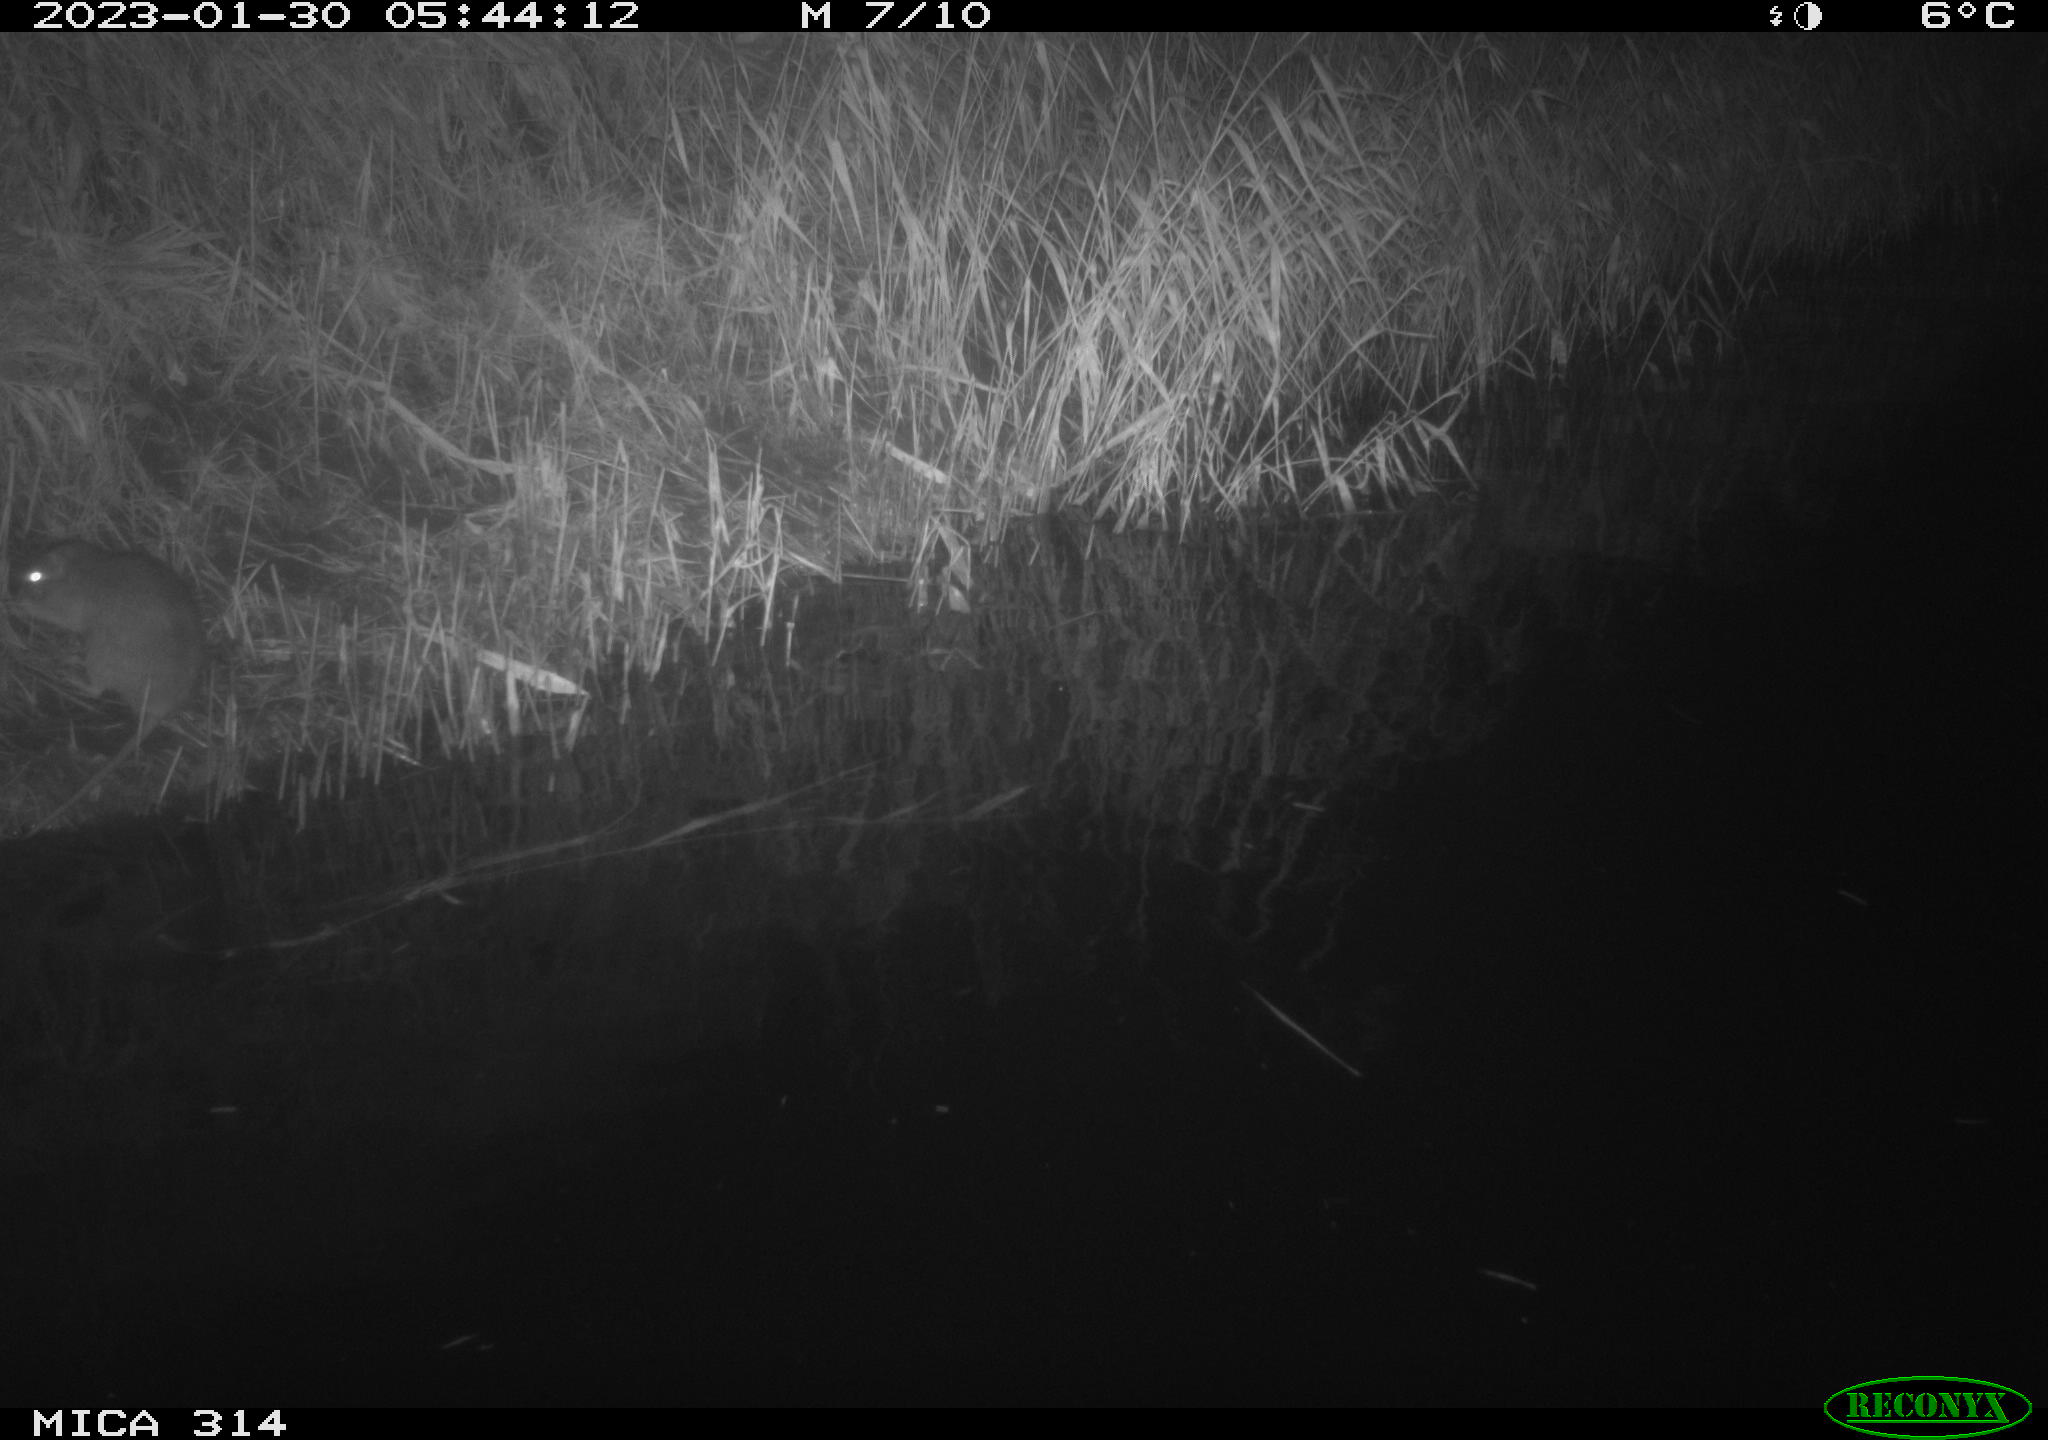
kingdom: Animalia
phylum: Chordata
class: Mammalia
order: Rodentia
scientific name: Rodentia
